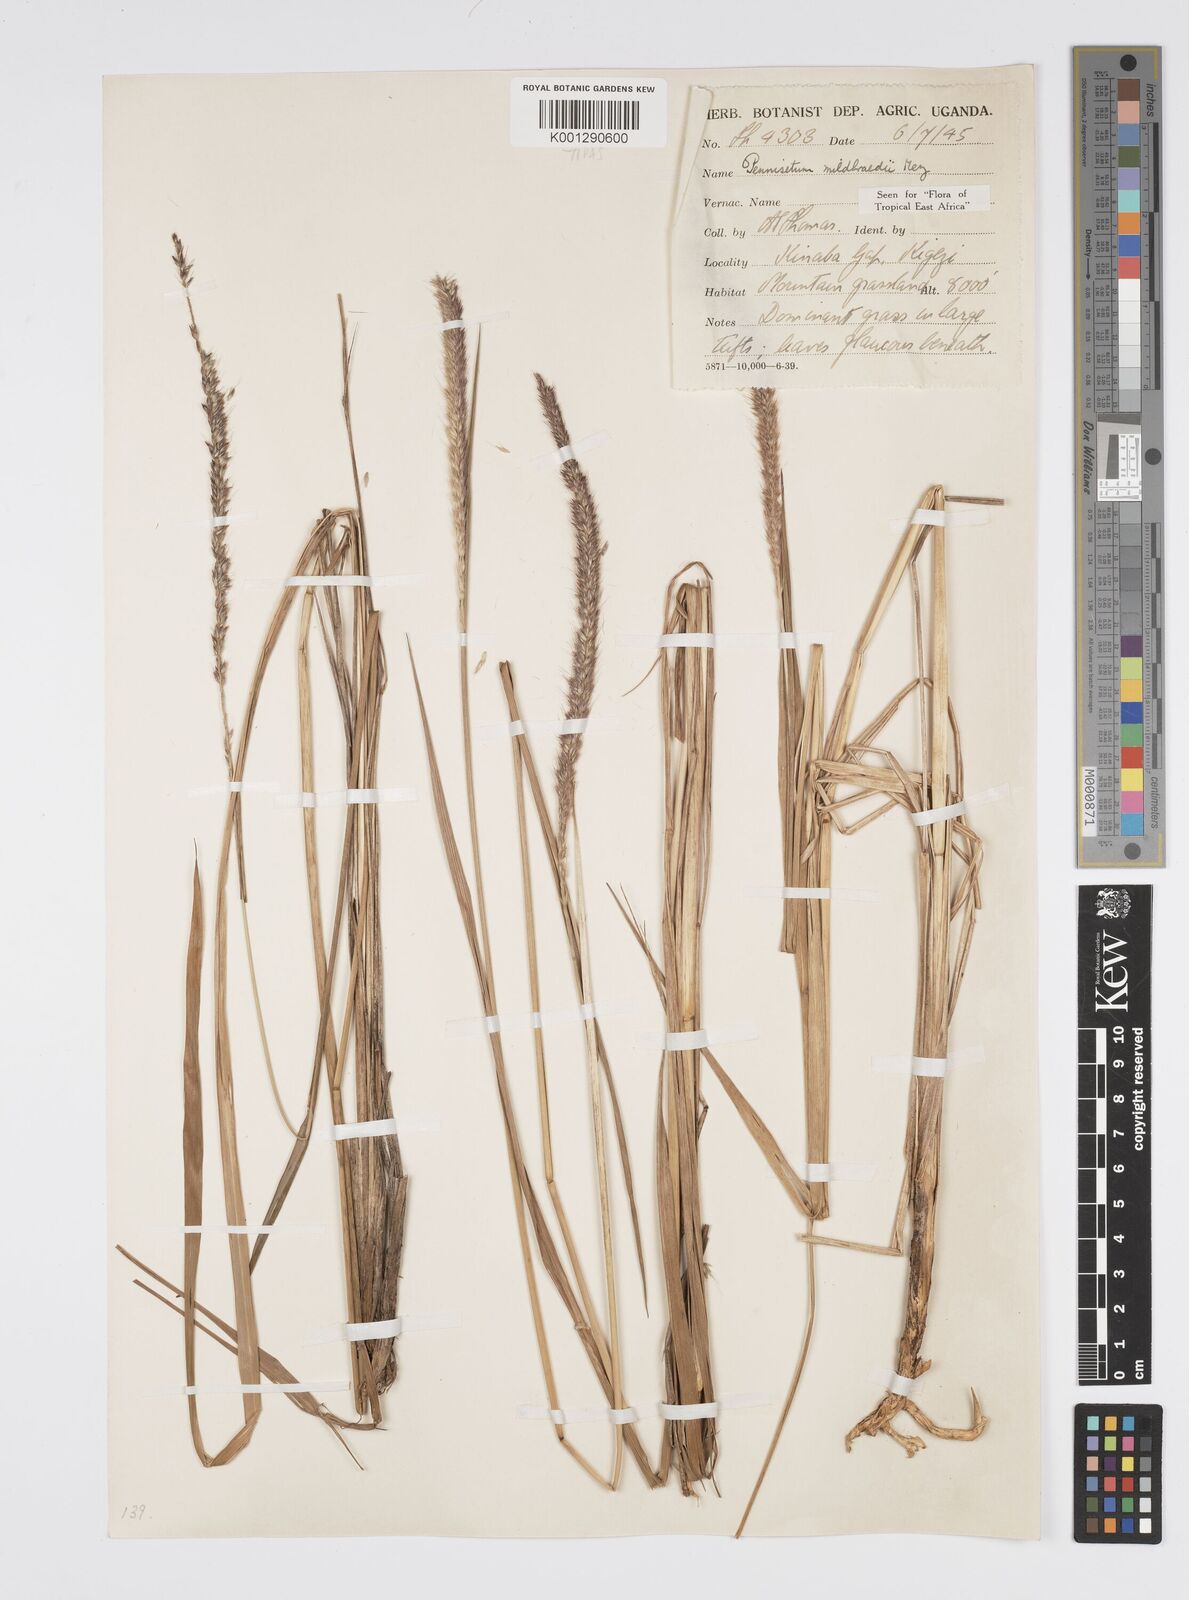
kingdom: Plantae
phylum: Tracheophyta
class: Liliopsida
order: Poales
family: Poaceae
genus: Cenchrus
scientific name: Cenchrus caudatus
